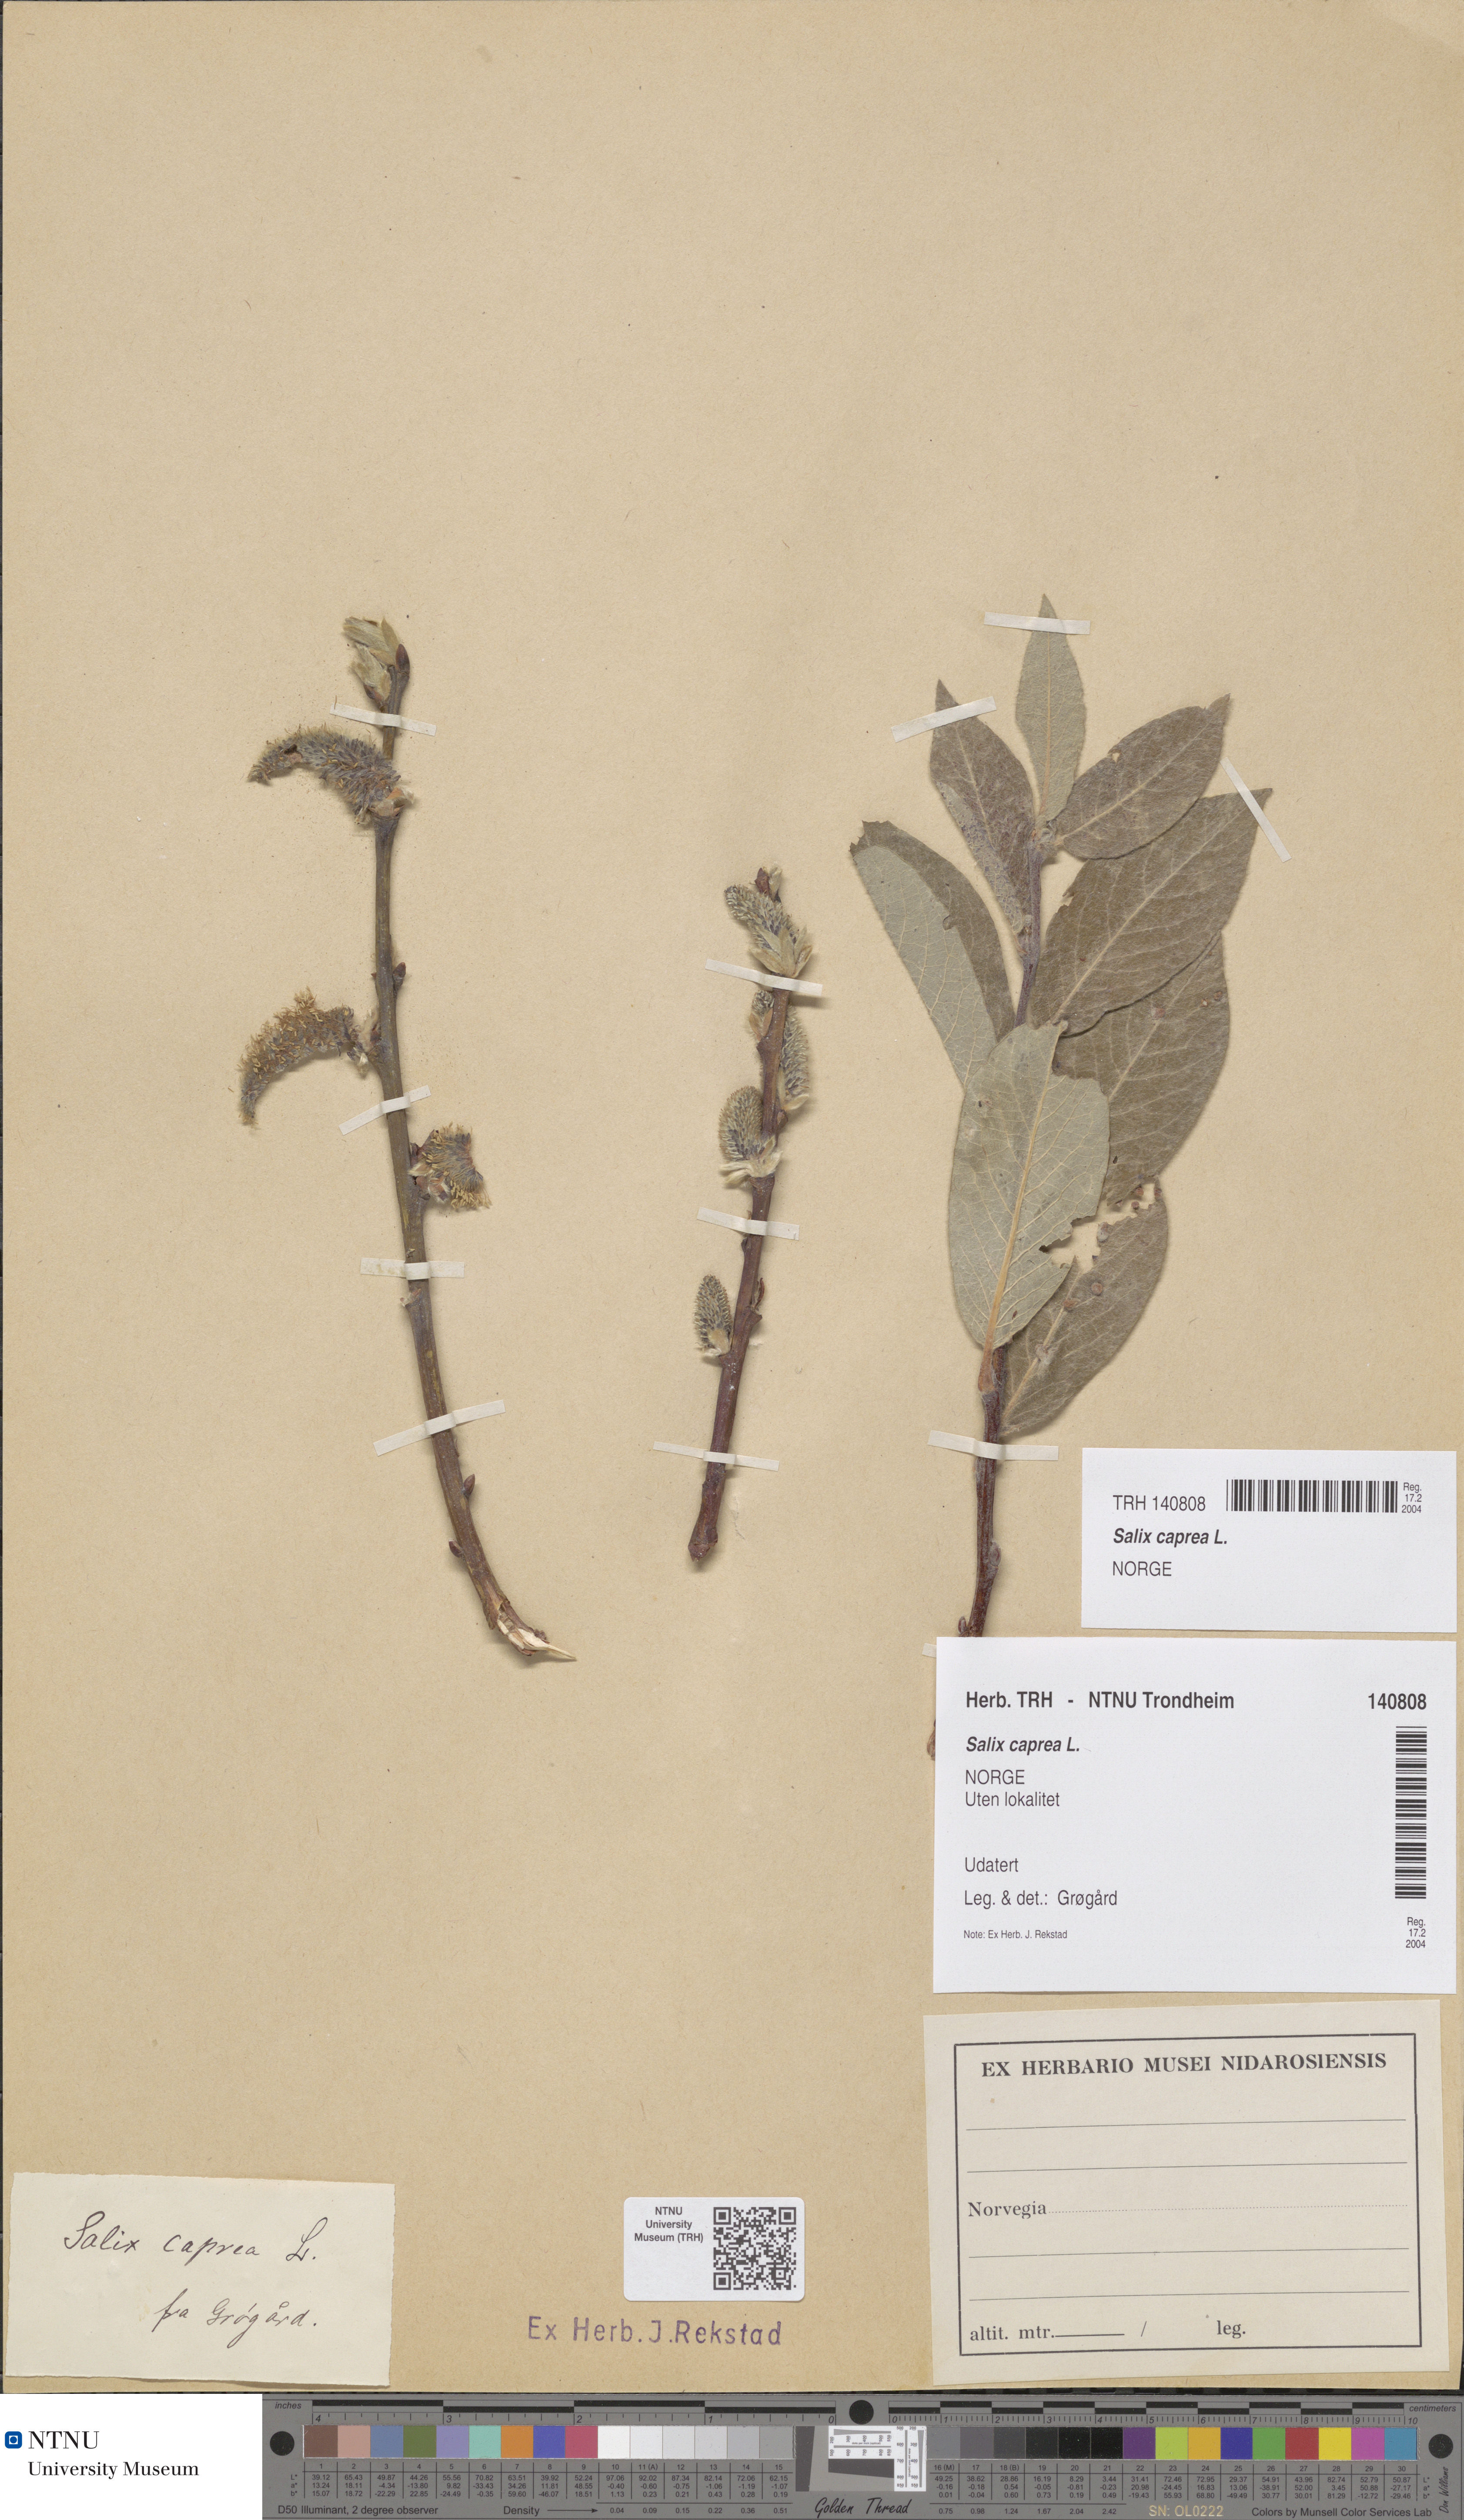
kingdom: Plantae
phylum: Tracheophyta
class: Magnoliopsida
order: Malpighiales
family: Salicaceae
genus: Salix
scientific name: Salix caprea
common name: Goat willow
